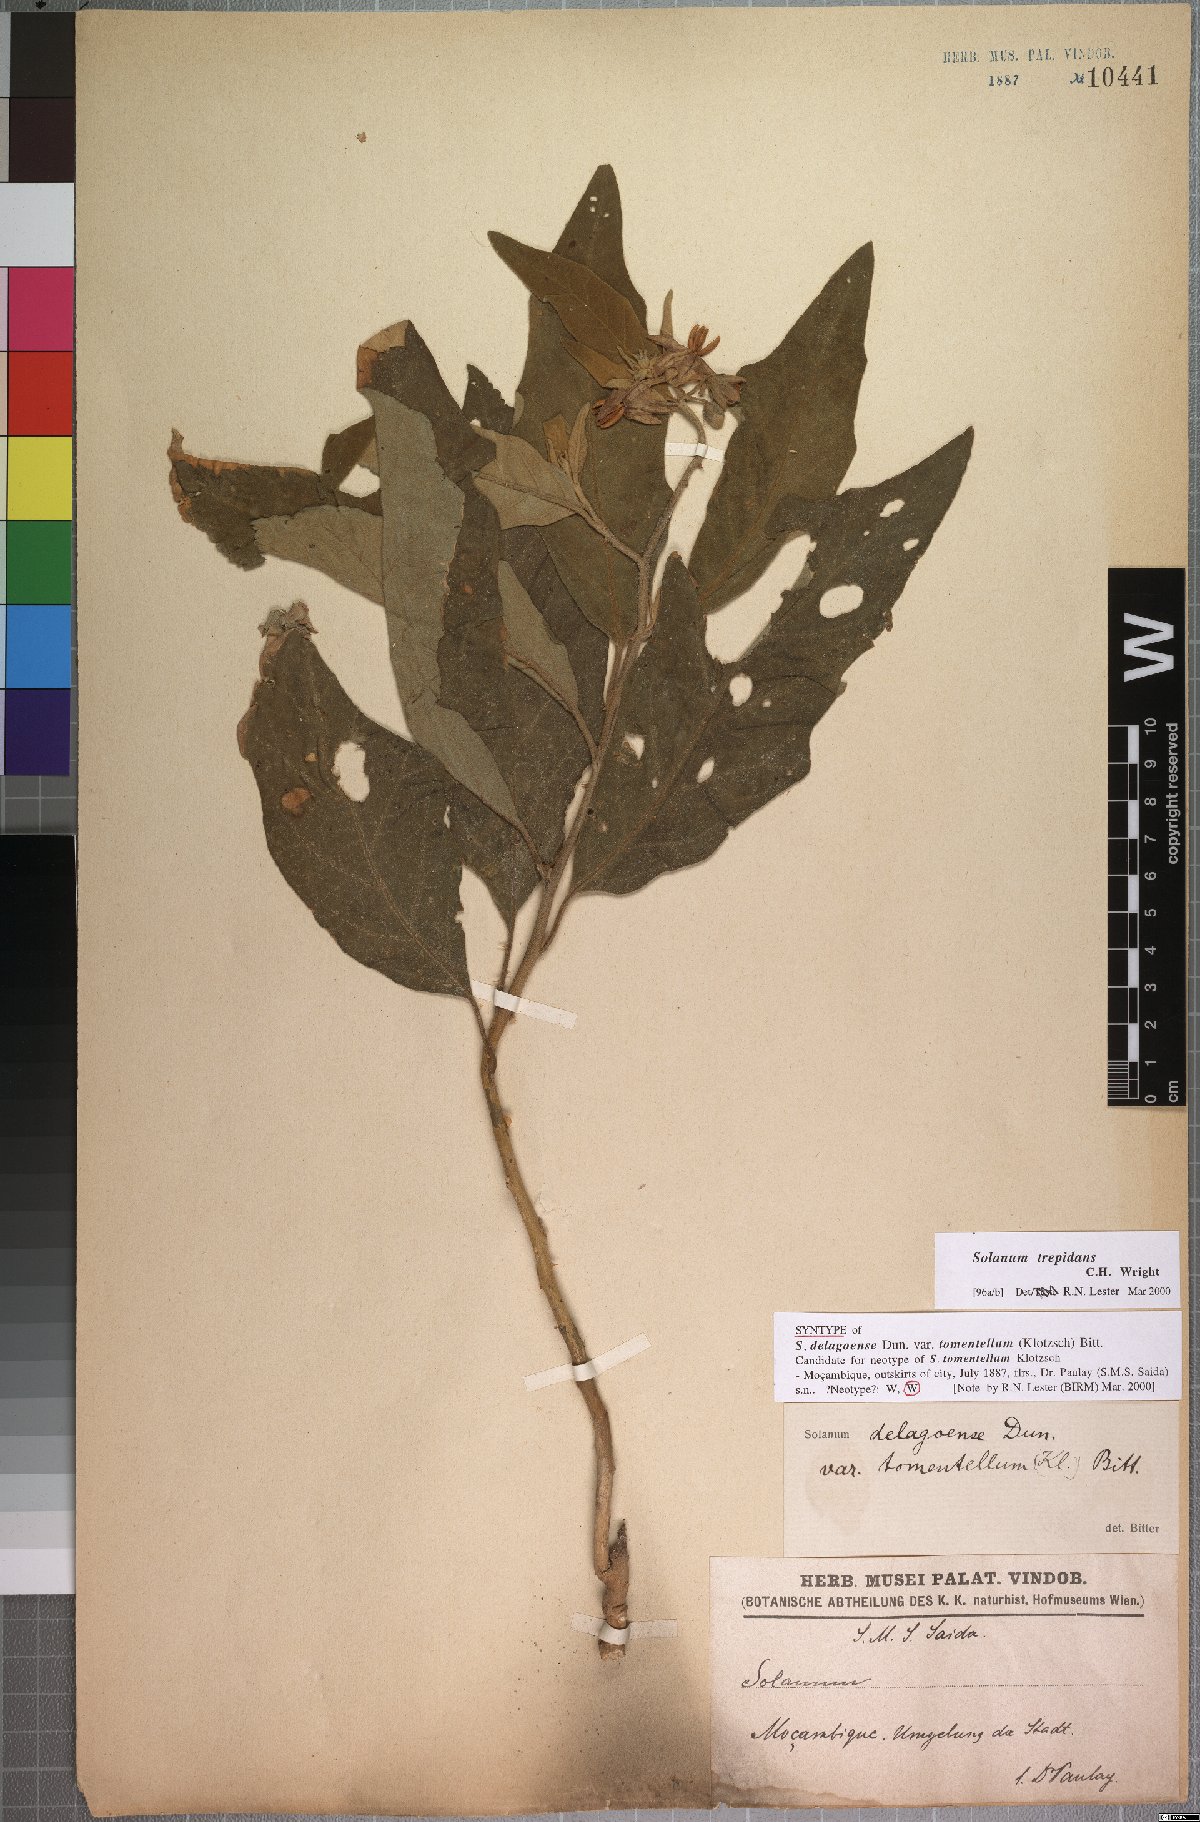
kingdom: Plantae
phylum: Tracheophyta
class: Magnoliopsida
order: Solanales
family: Solanaceae
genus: Solanum
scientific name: Solanum campylacanthum
